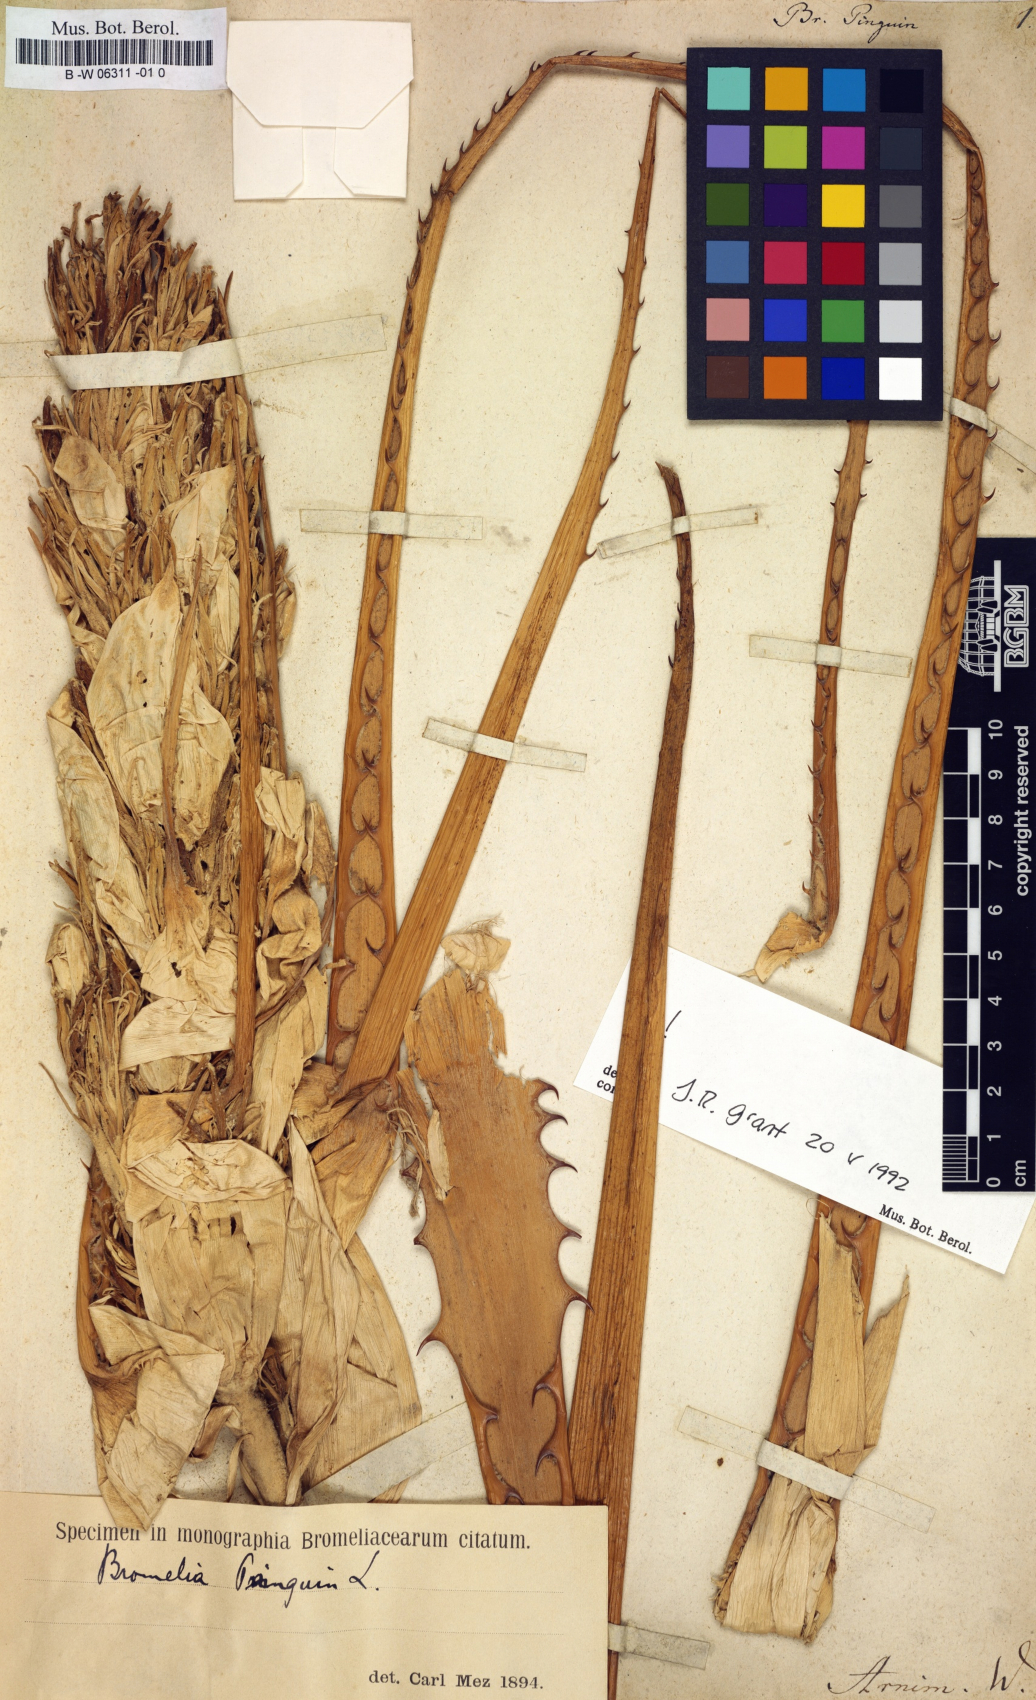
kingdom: Plantae
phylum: Tracheophyta
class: Liliopsida
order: Poales
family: Bromeliaceae
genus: Bromelia
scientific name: Bromelia pinguin
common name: Pinguin
